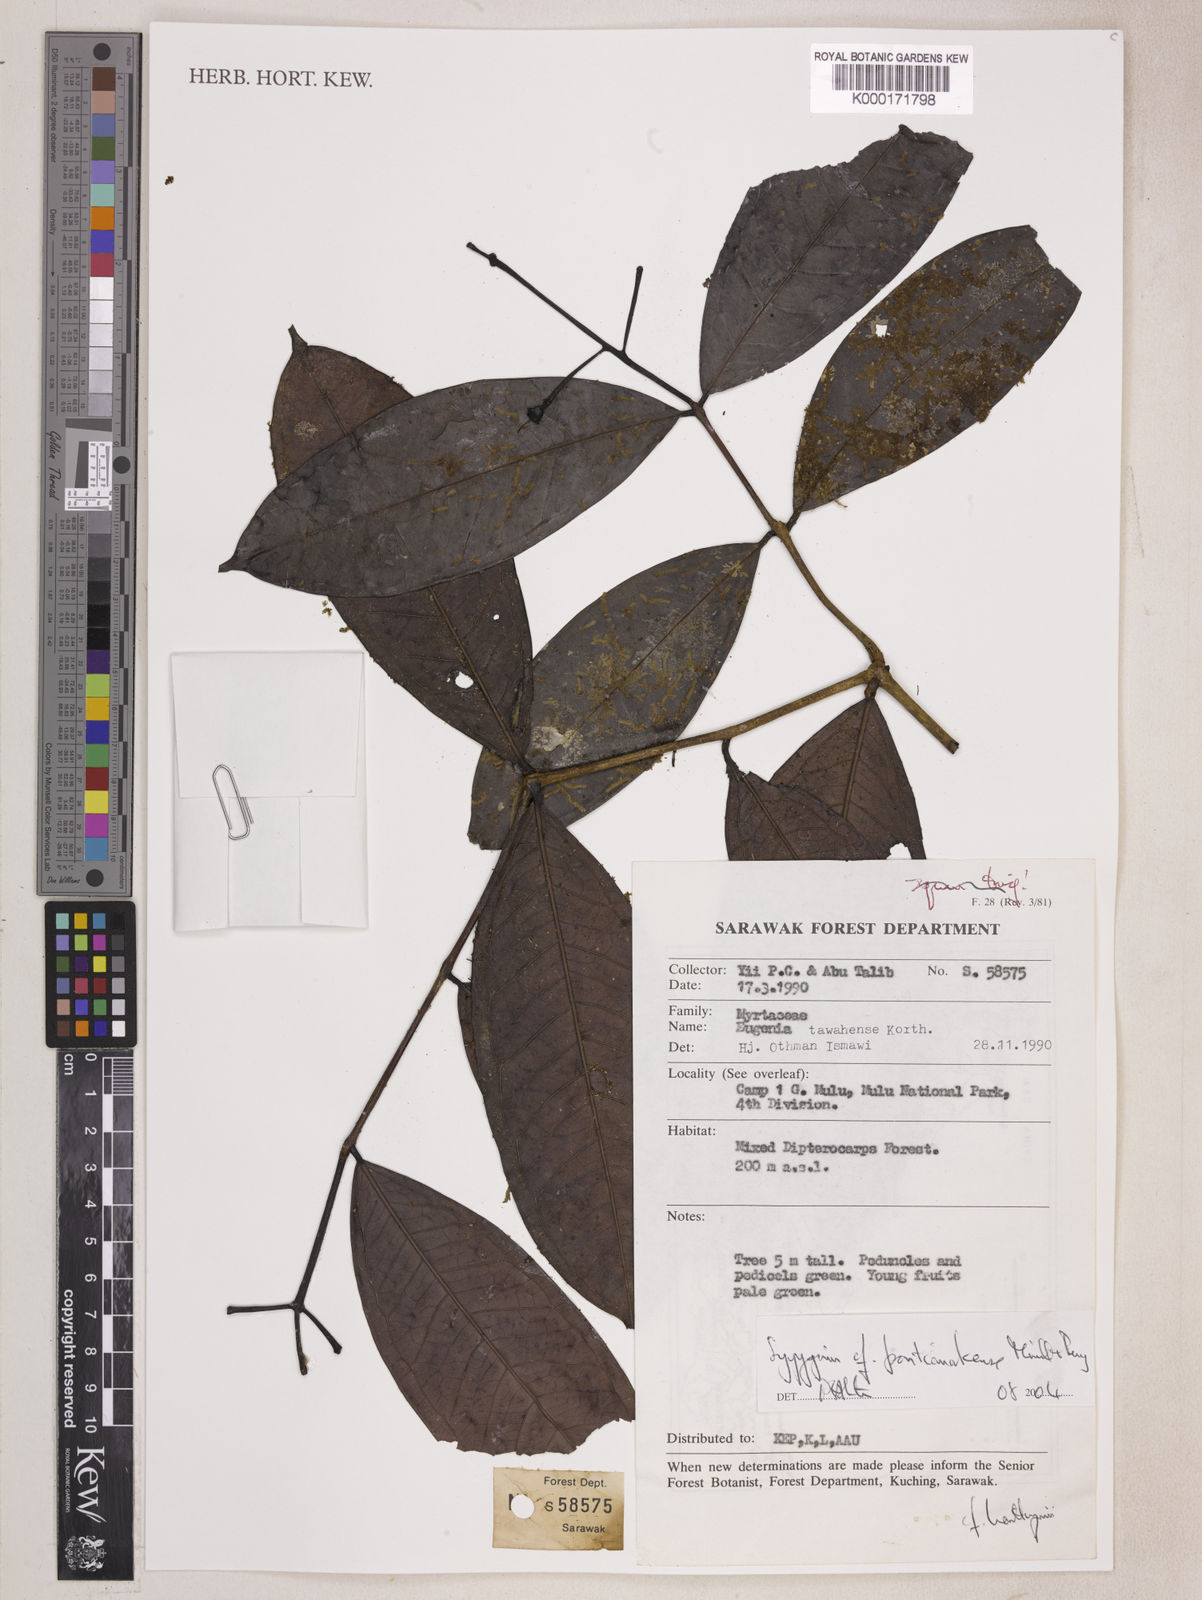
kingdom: Plantae
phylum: Tracheophyta
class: Magnoliopsida
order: Myrtales
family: Myrtaceae
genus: Syzygium
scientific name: Syzygium pontianakense
